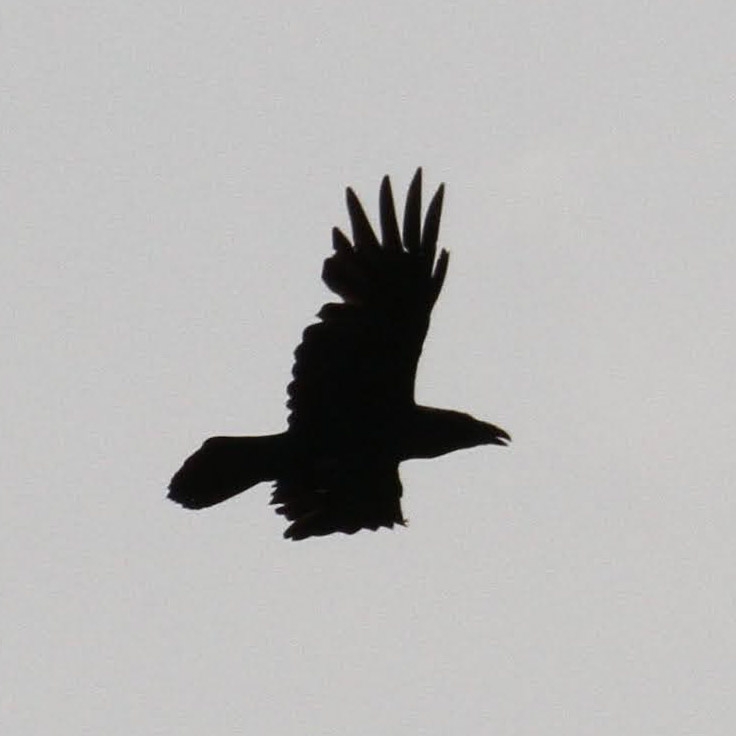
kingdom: Animalia
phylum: Chordata
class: Aves
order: Passeriformes
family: Corvidae
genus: Corvus
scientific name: Corvus corax
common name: Ravn
